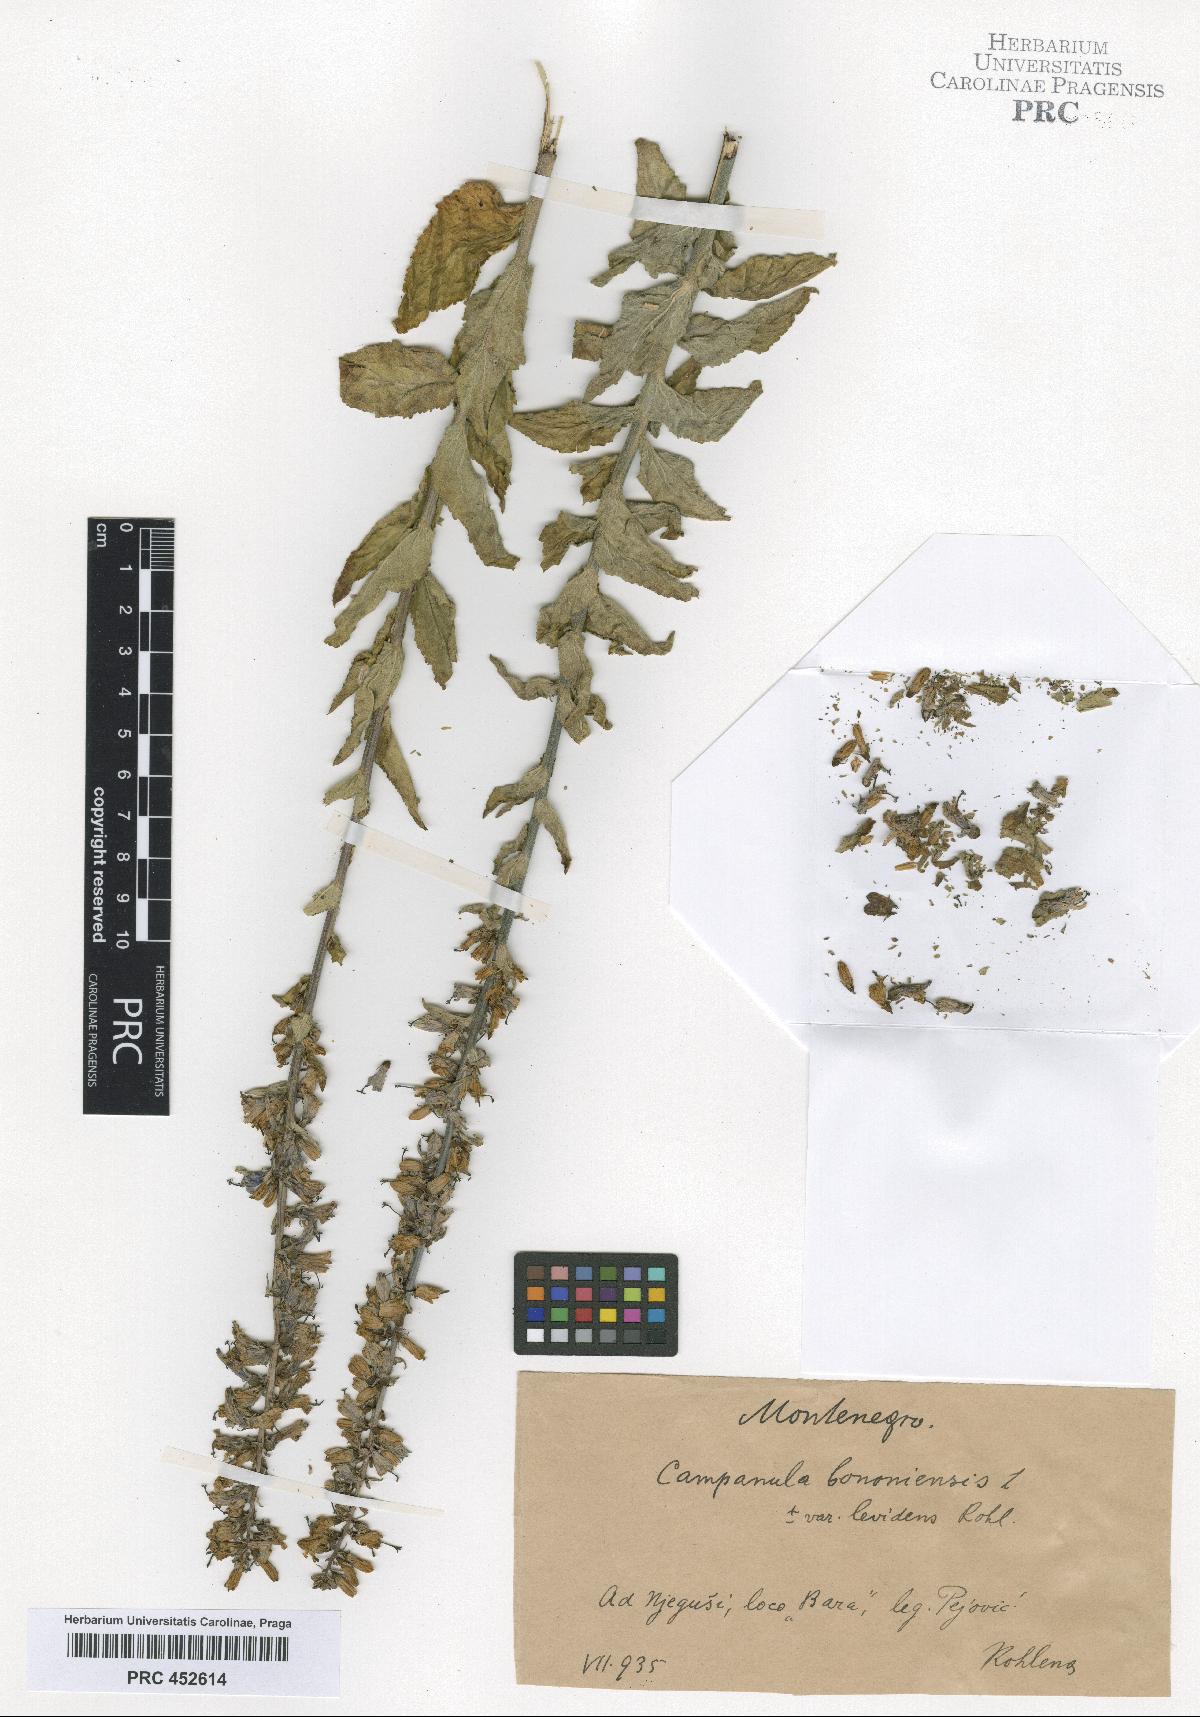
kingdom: Plantae
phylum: Tracheophyta
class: Magnoliopsida
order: Asterales
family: Campanulaceae
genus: Campanula
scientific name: Campanula bononiensis
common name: Pale bellflower
